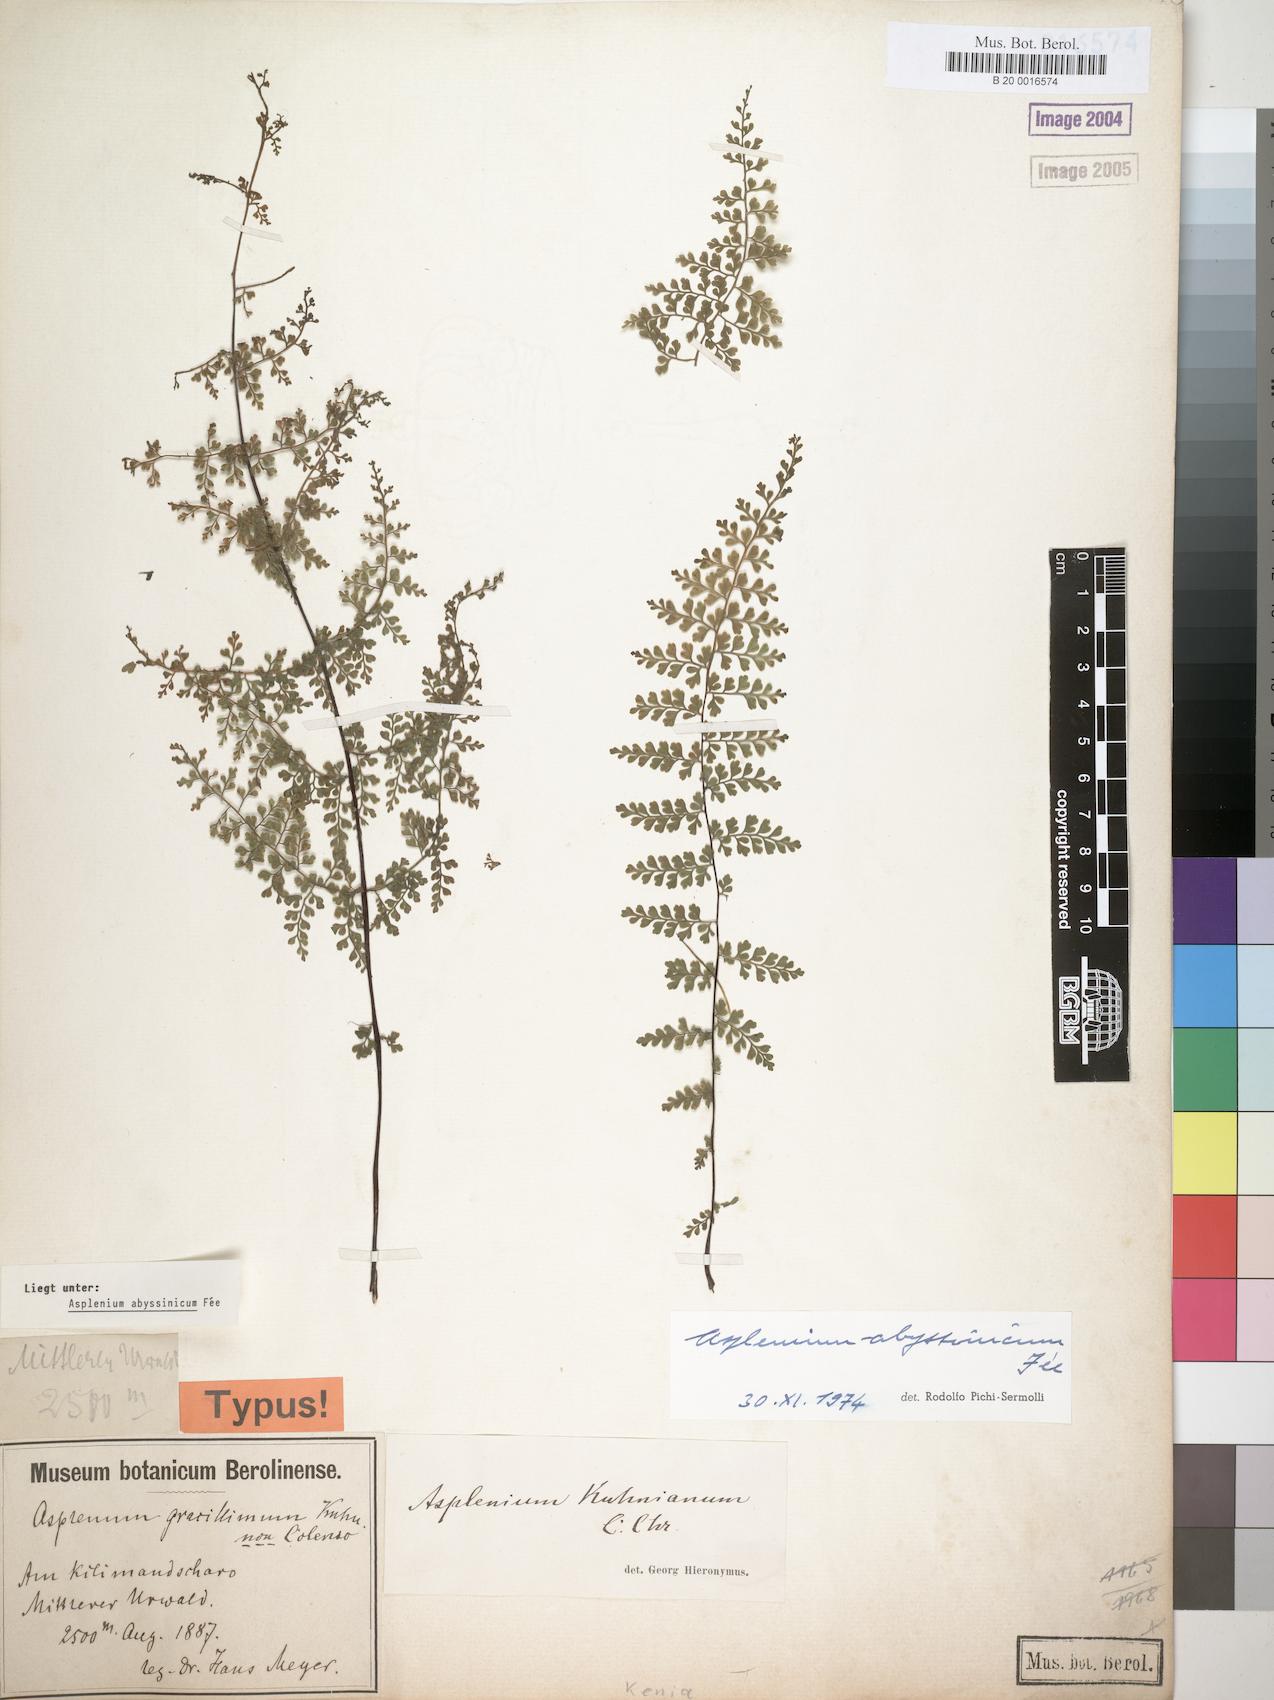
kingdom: Plantae
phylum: Tracheophyta
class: Polypodiopsida
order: Polypodiales
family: Aspleniaceae
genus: Asplenium
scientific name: Asplenium abyssinicum
